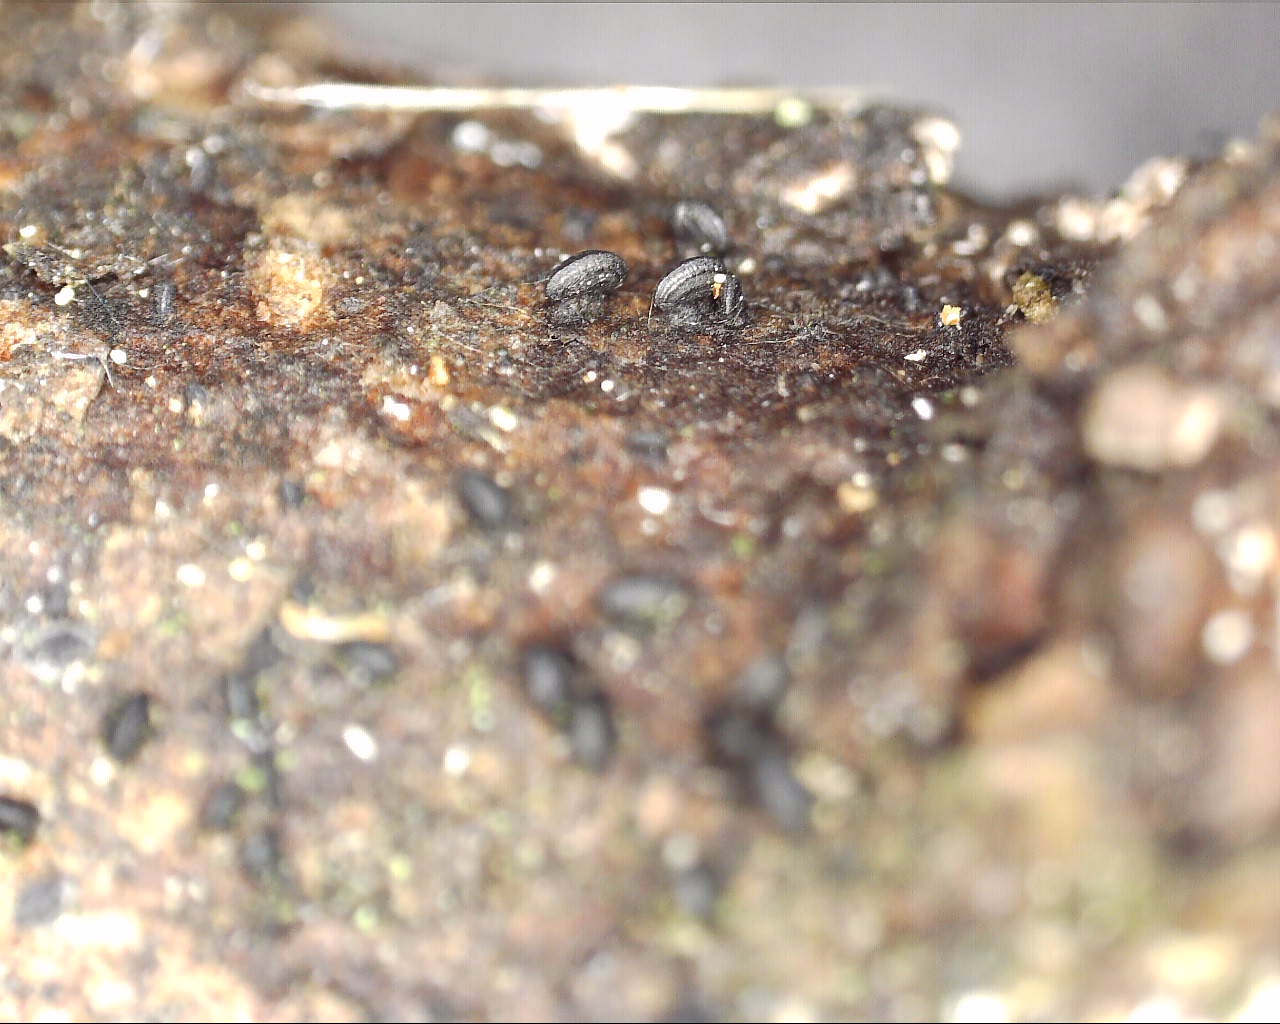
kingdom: Fungi
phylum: Ascomycota
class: Dothideomycetes
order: Mytilinidiales
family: Mytilinidiaceae
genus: Mytilinidion
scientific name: Mytilinidion rhenanum
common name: almindelig kulmusling
